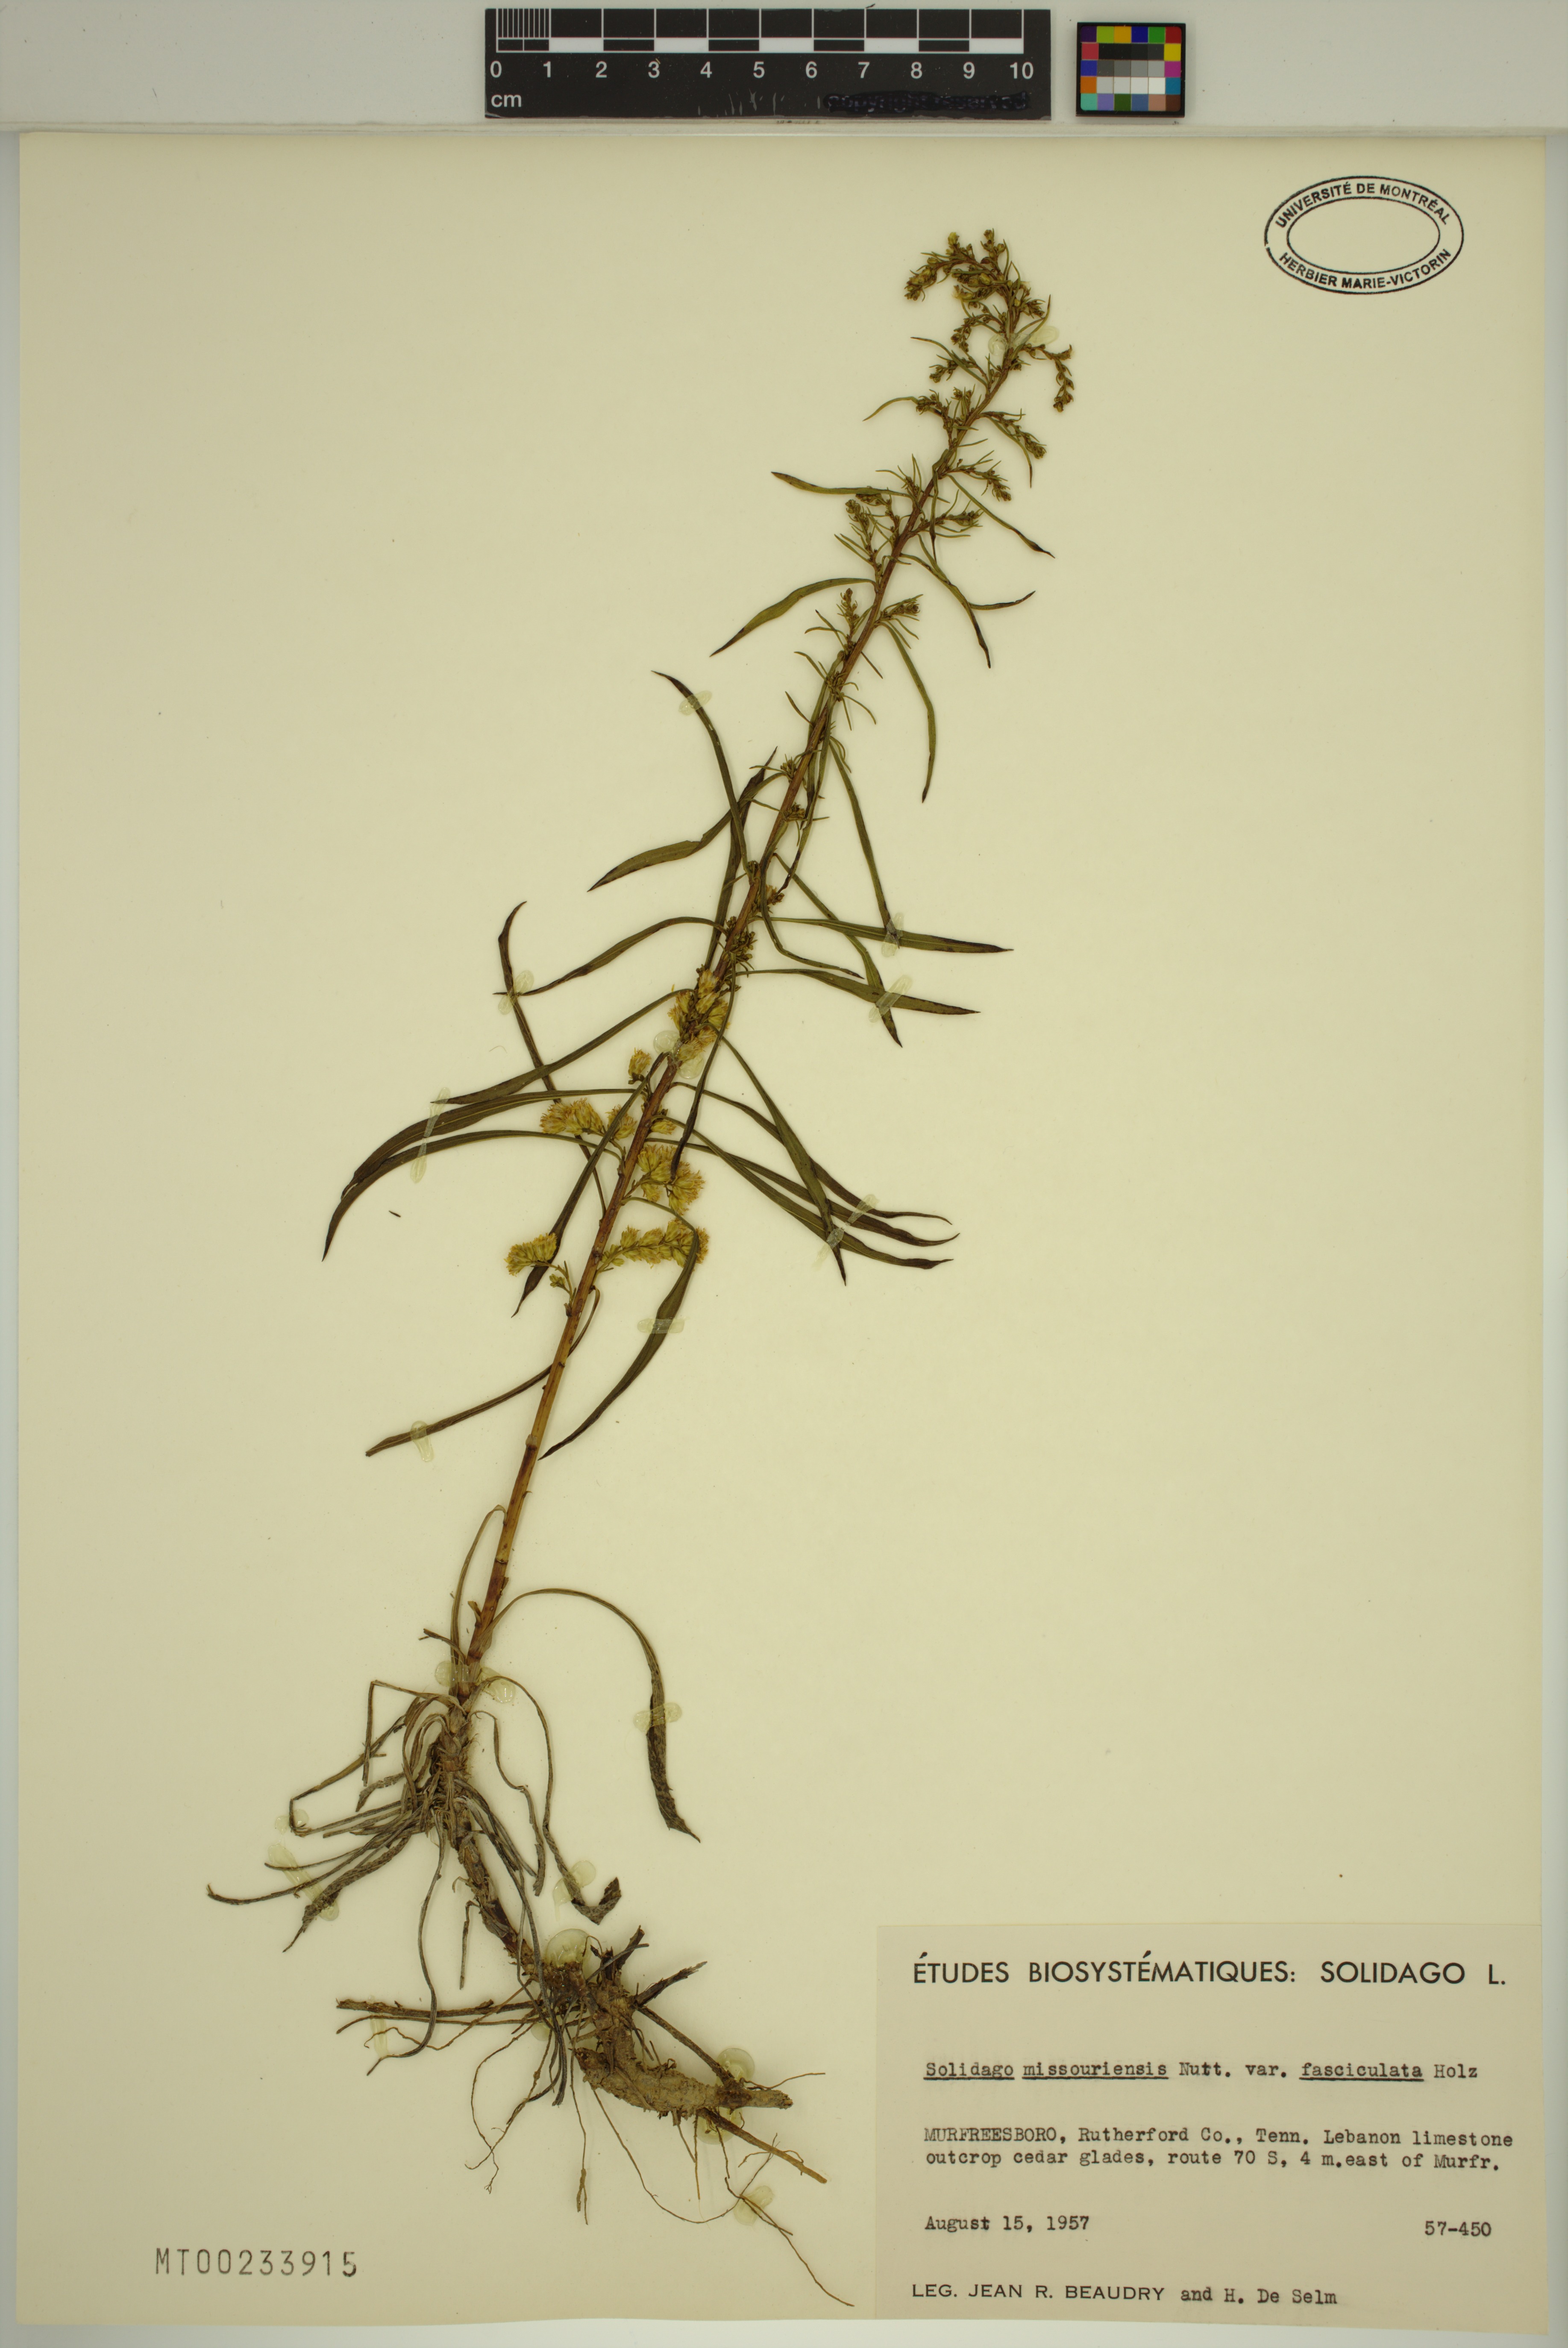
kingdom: Plantae
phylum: Tracheophyta
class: Magnoliopsida
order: Asterales
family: Asteraceae
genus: Solidago
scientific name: Solidago missouriensis
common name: Prairie goldenrod
